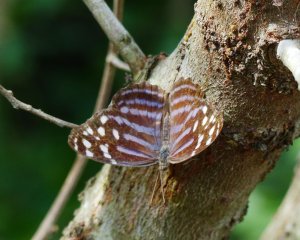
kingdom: Animalia
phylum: Arthropoda
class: Insecta
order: Lepidoptera
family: Nymphalidae
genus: Myscelia
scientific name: Myscelia ethusa
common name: Mexican Bluewing
